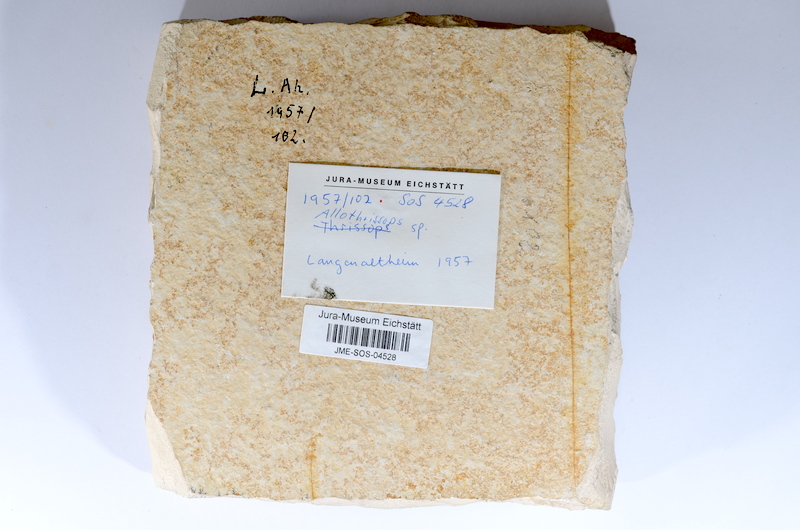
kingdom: Animalia
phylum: Chordata
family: Allothrissopidae
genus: Allothrissops
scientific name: Allothrissops
